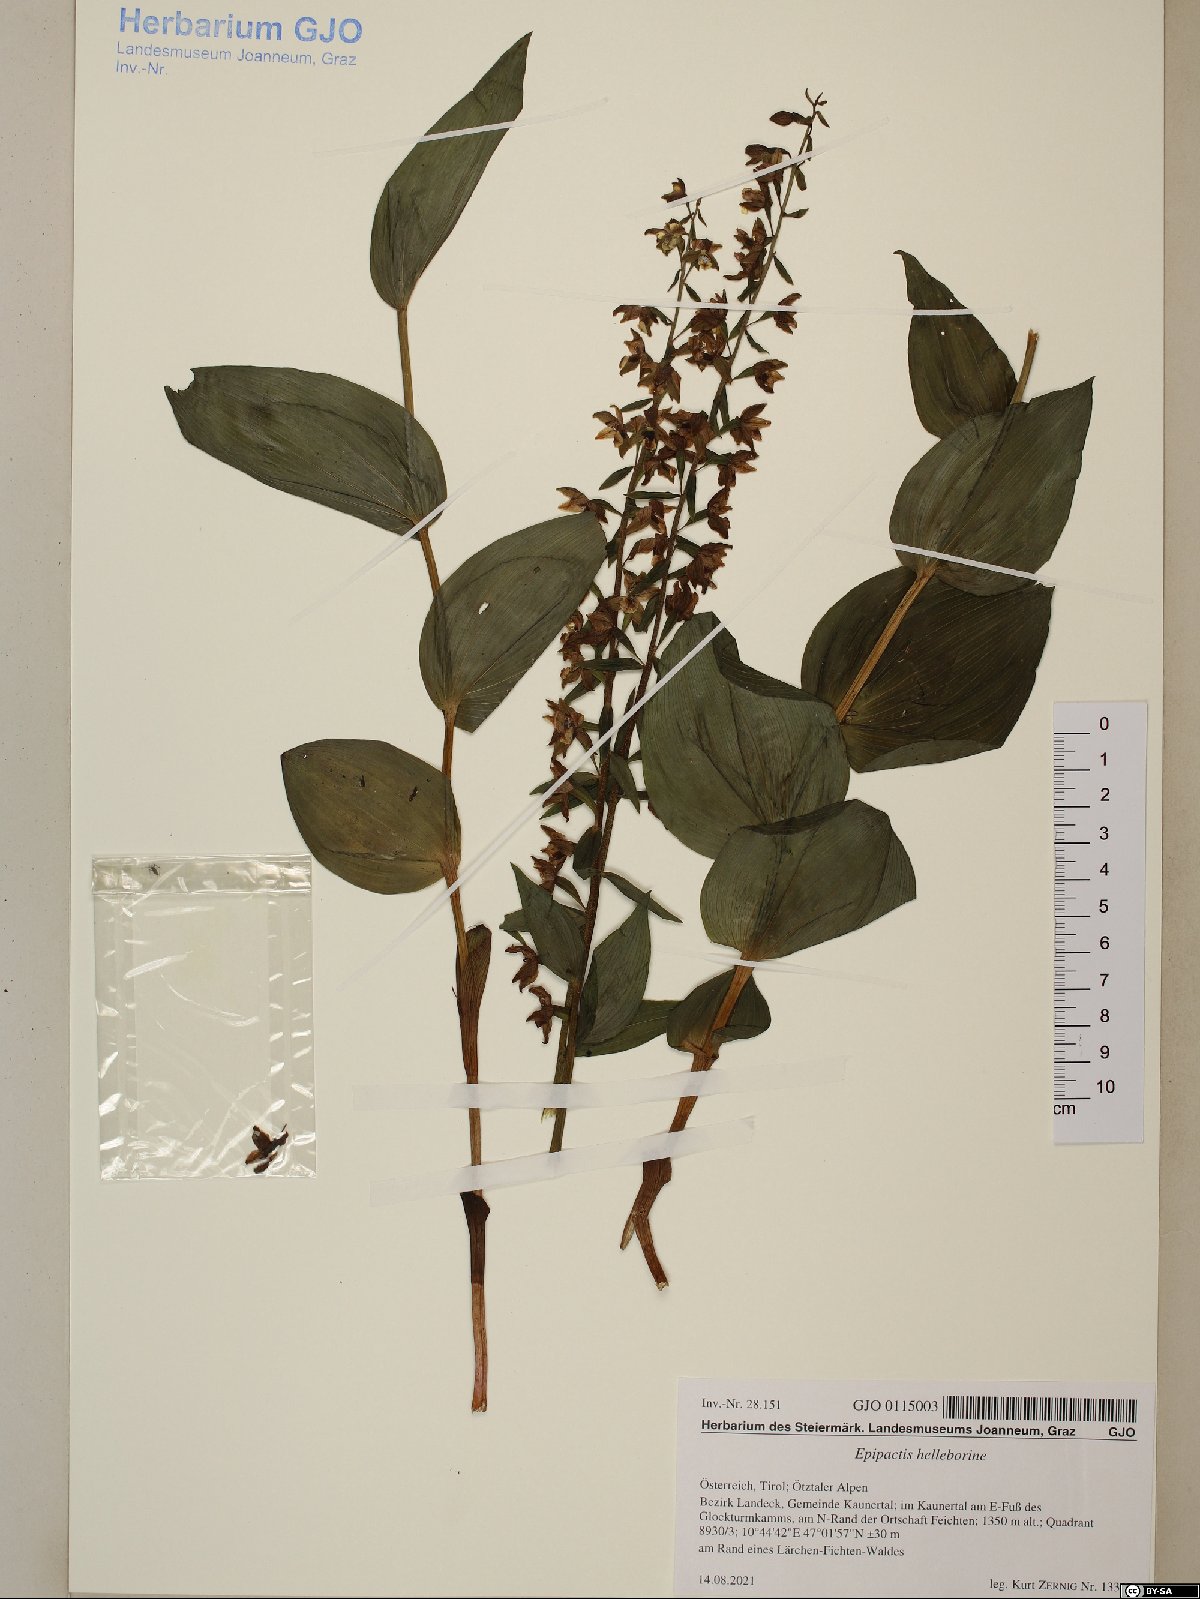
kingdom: Plantae
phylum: Tracheophyta
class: Liliopsida
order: Asparagales
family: Orchidaceae
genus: Epipactis
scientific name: Epipactis helleborine
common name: Broad-leaved helleborine
